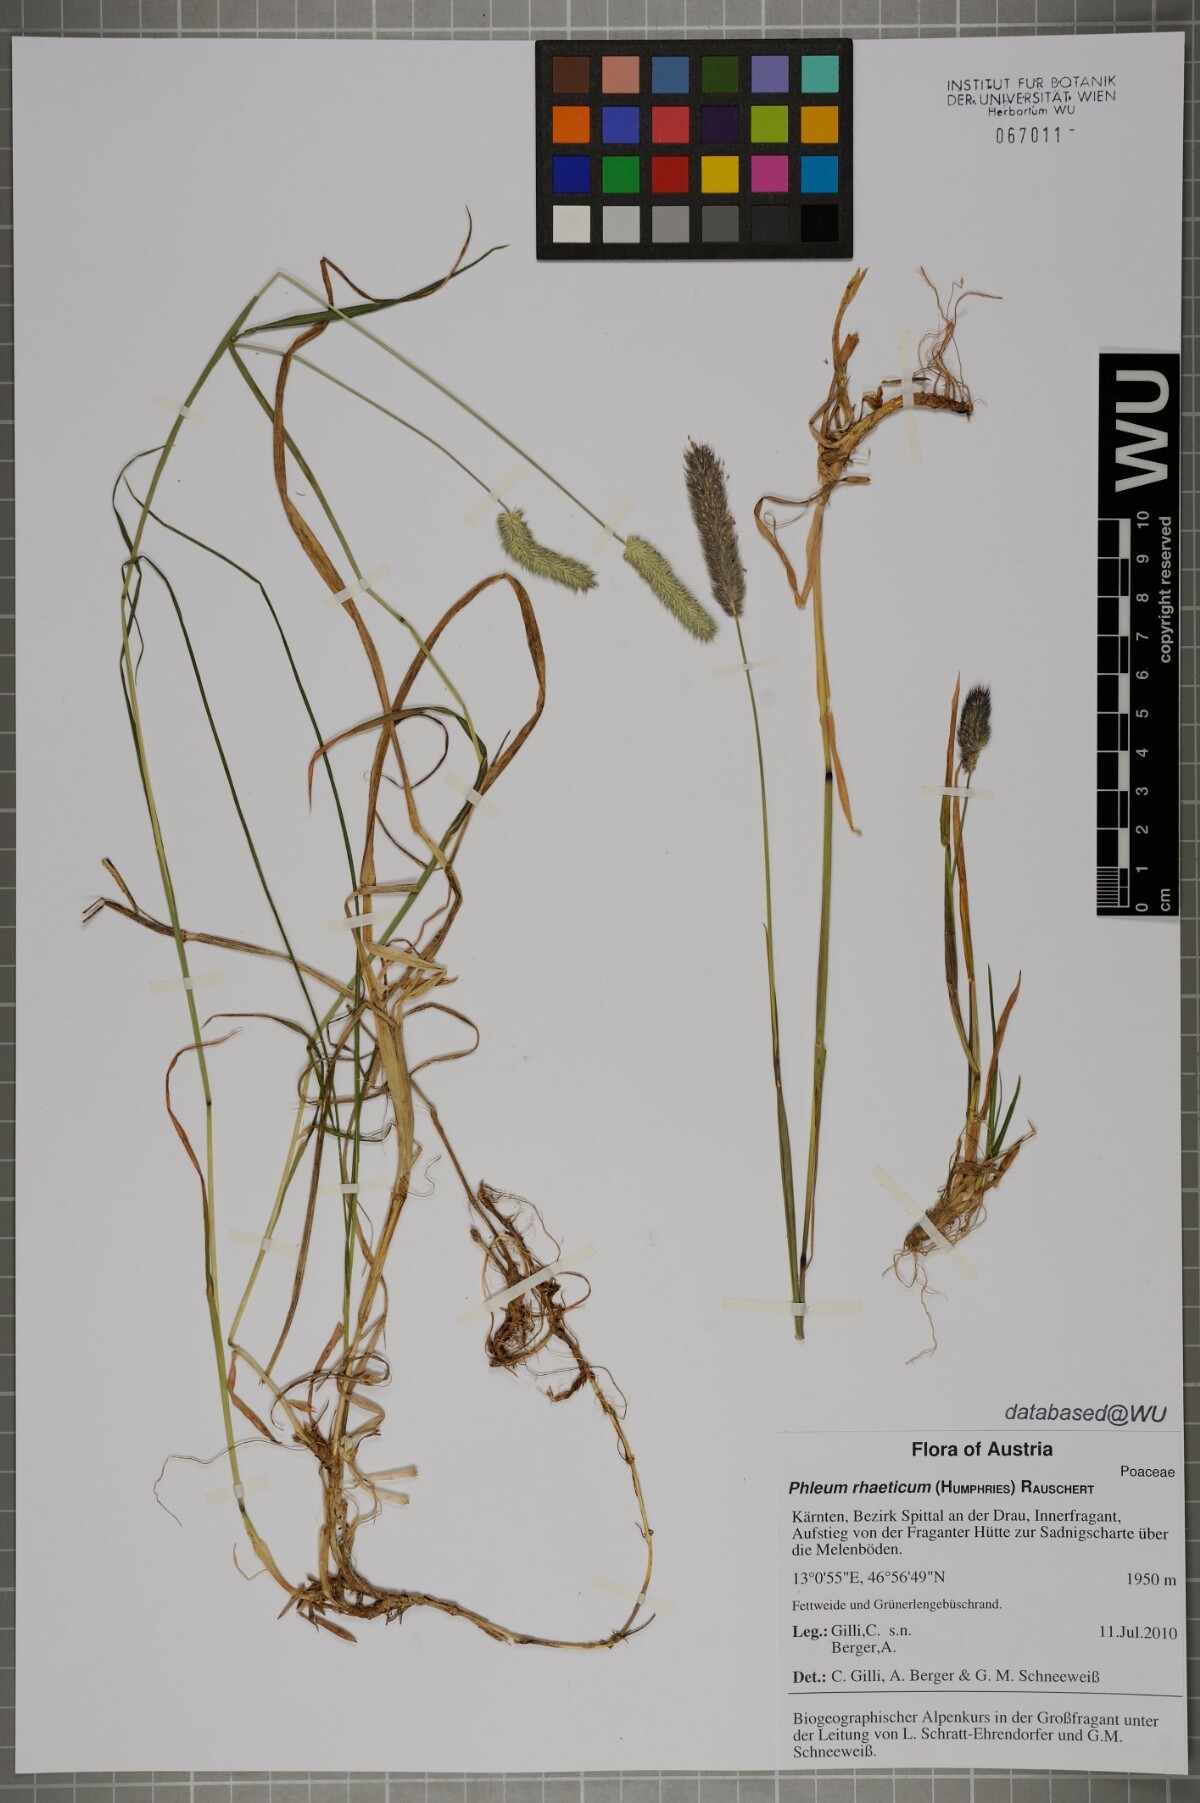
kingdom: Plantae
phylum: Tracheophyta
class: Liliopsida
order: Poales
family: Poaceae
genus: Phleum
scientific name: Phleum alpinum
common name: Alpine cat's-tail
